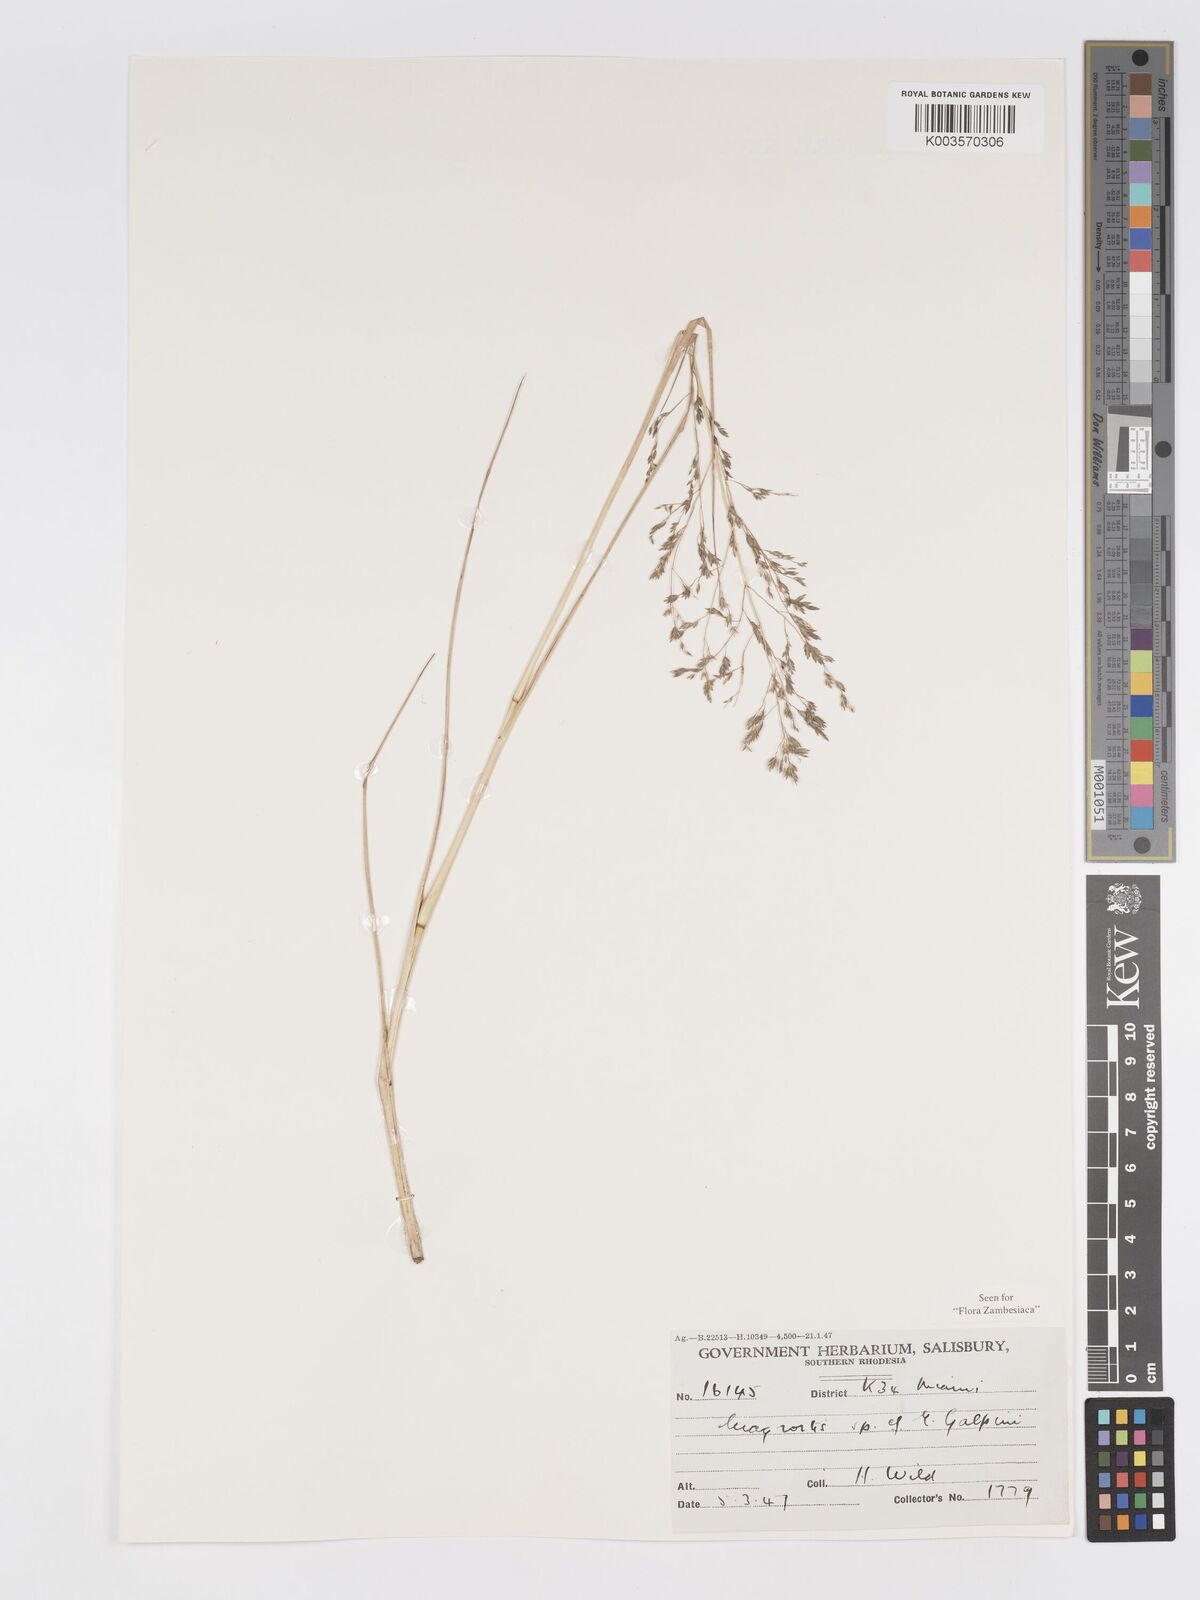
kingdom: Plantae
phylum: Tracheophyta
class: Liliopsida
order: Poales
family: Poaceae
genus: Eragrostis
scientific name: Eragrostis atrovirens
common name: Thalia lovegrass
